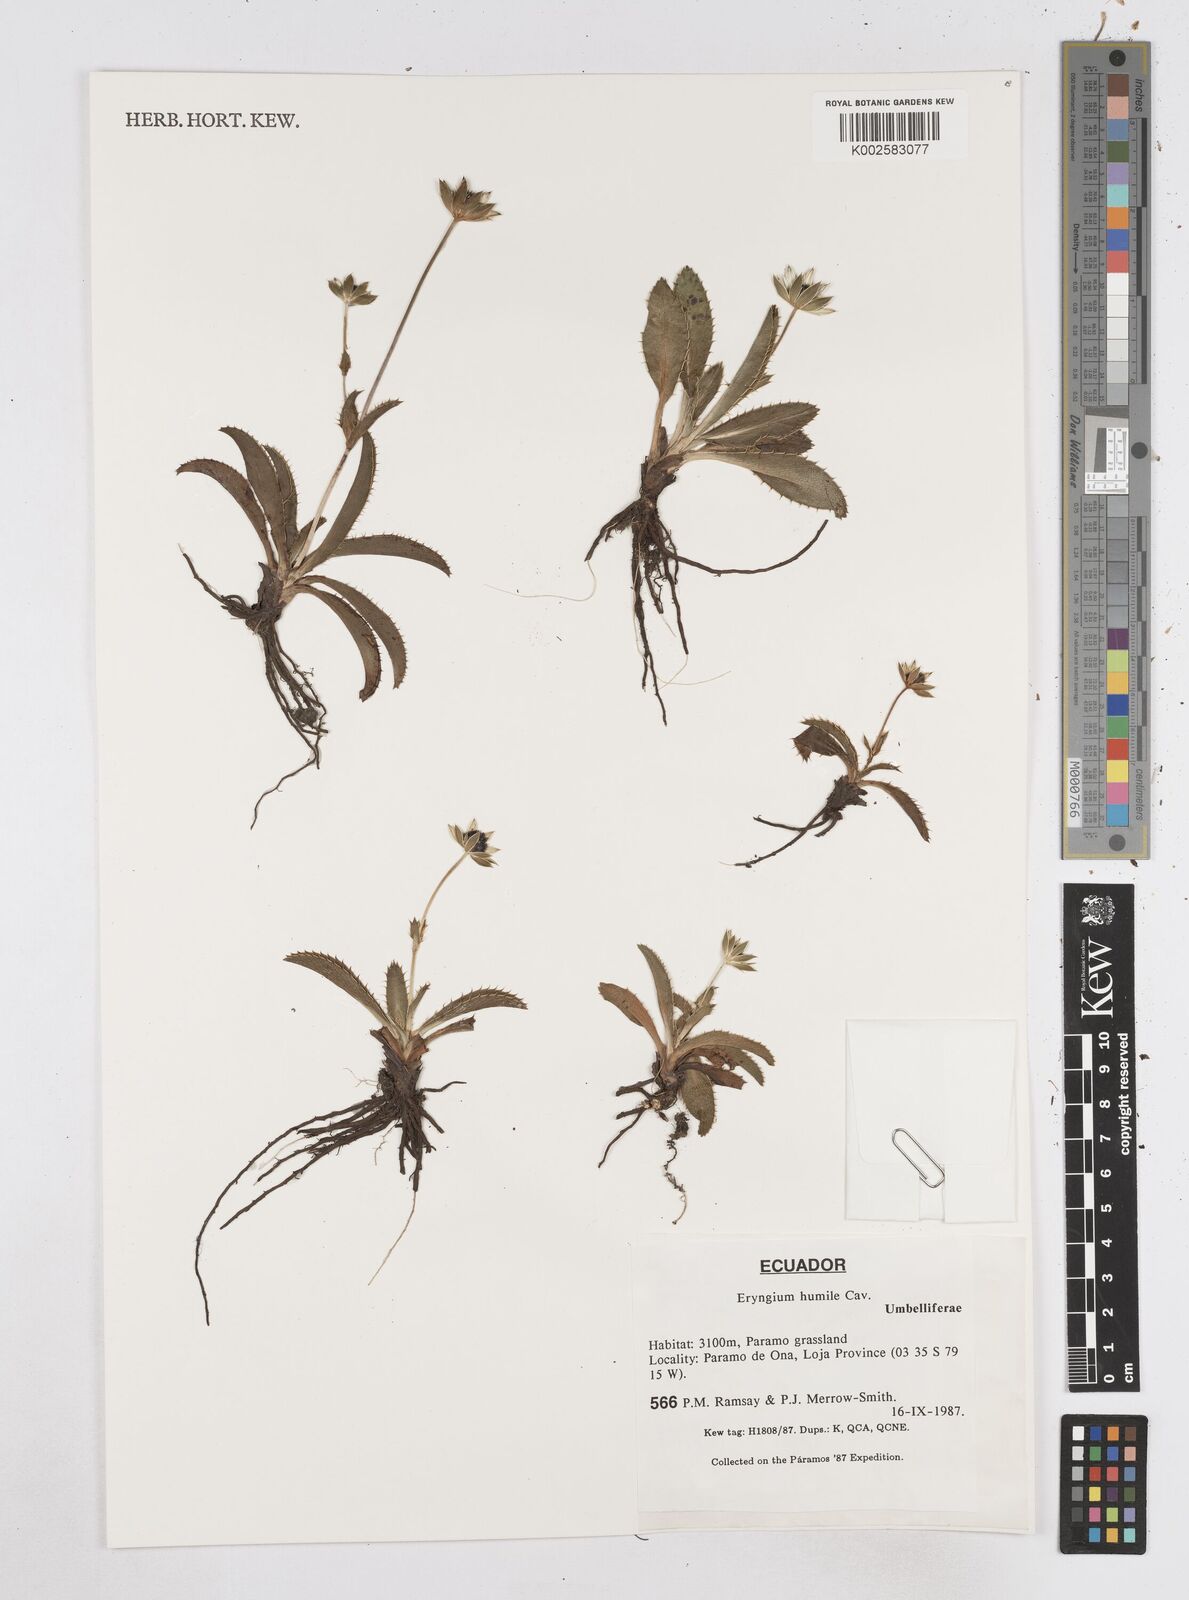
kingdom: Plantae
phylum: Tracheophyta
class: Magnoliopsida
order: Apiales
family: Apiaceae
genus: Eryngium
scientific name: Eryngium humile
